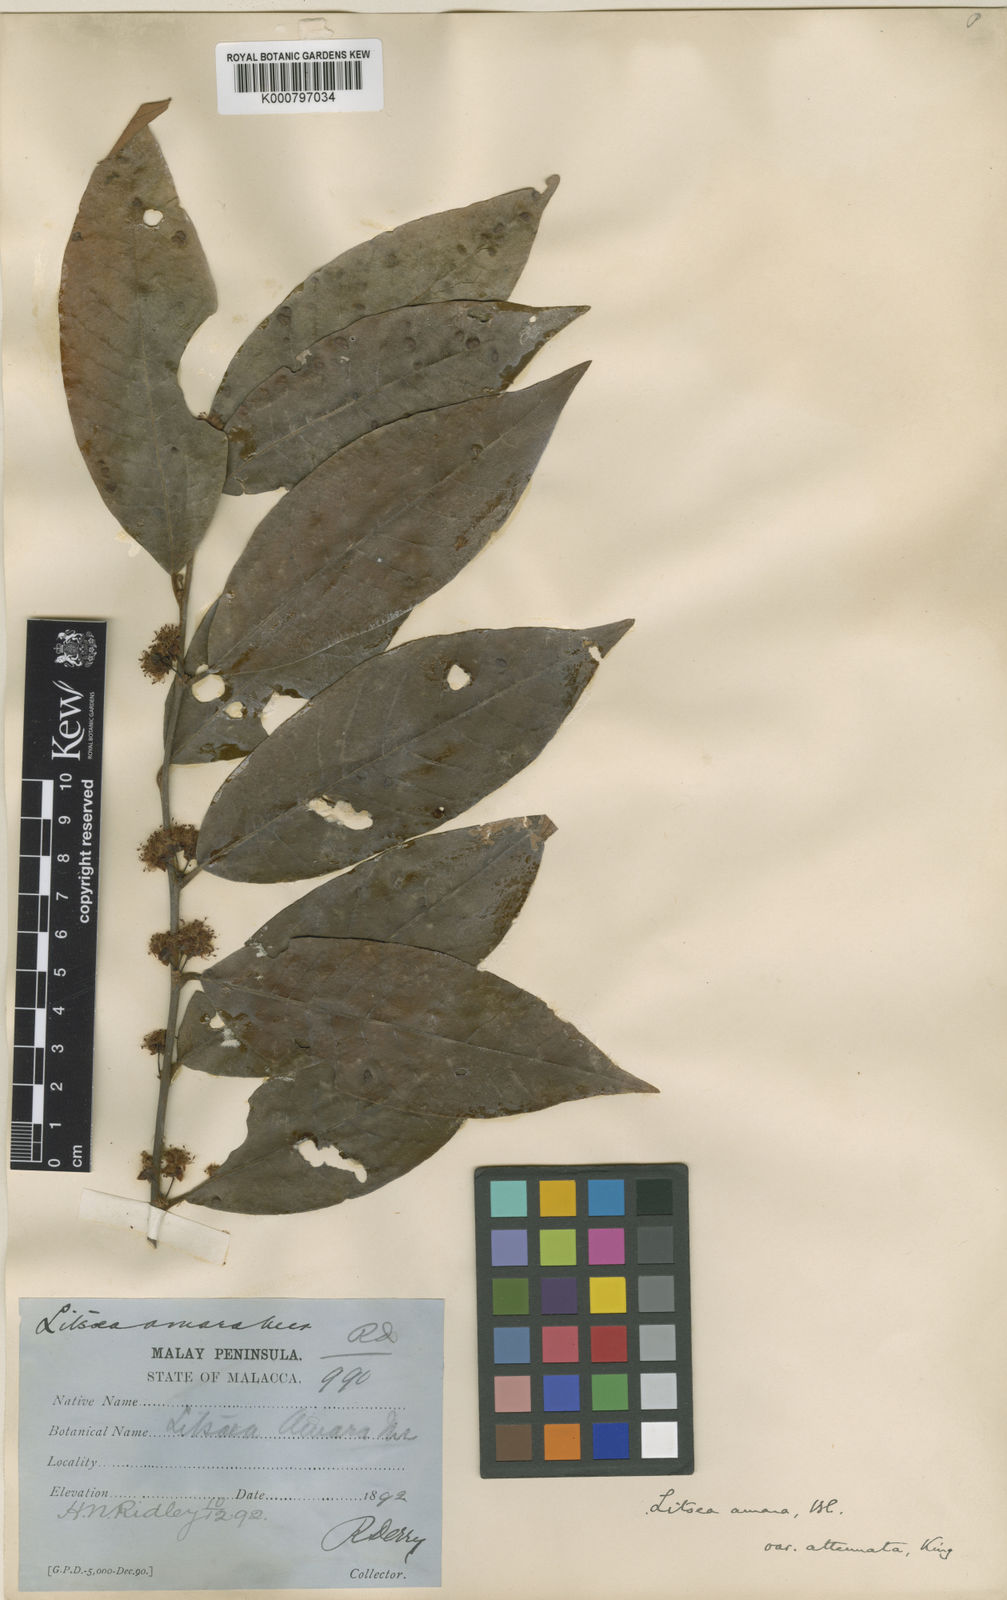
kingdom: Plantae
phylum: Tracheophyta
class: Magnoliopsida
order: Laurales
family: Lauraceae
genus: Litsea
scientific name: Litsea umbellata
